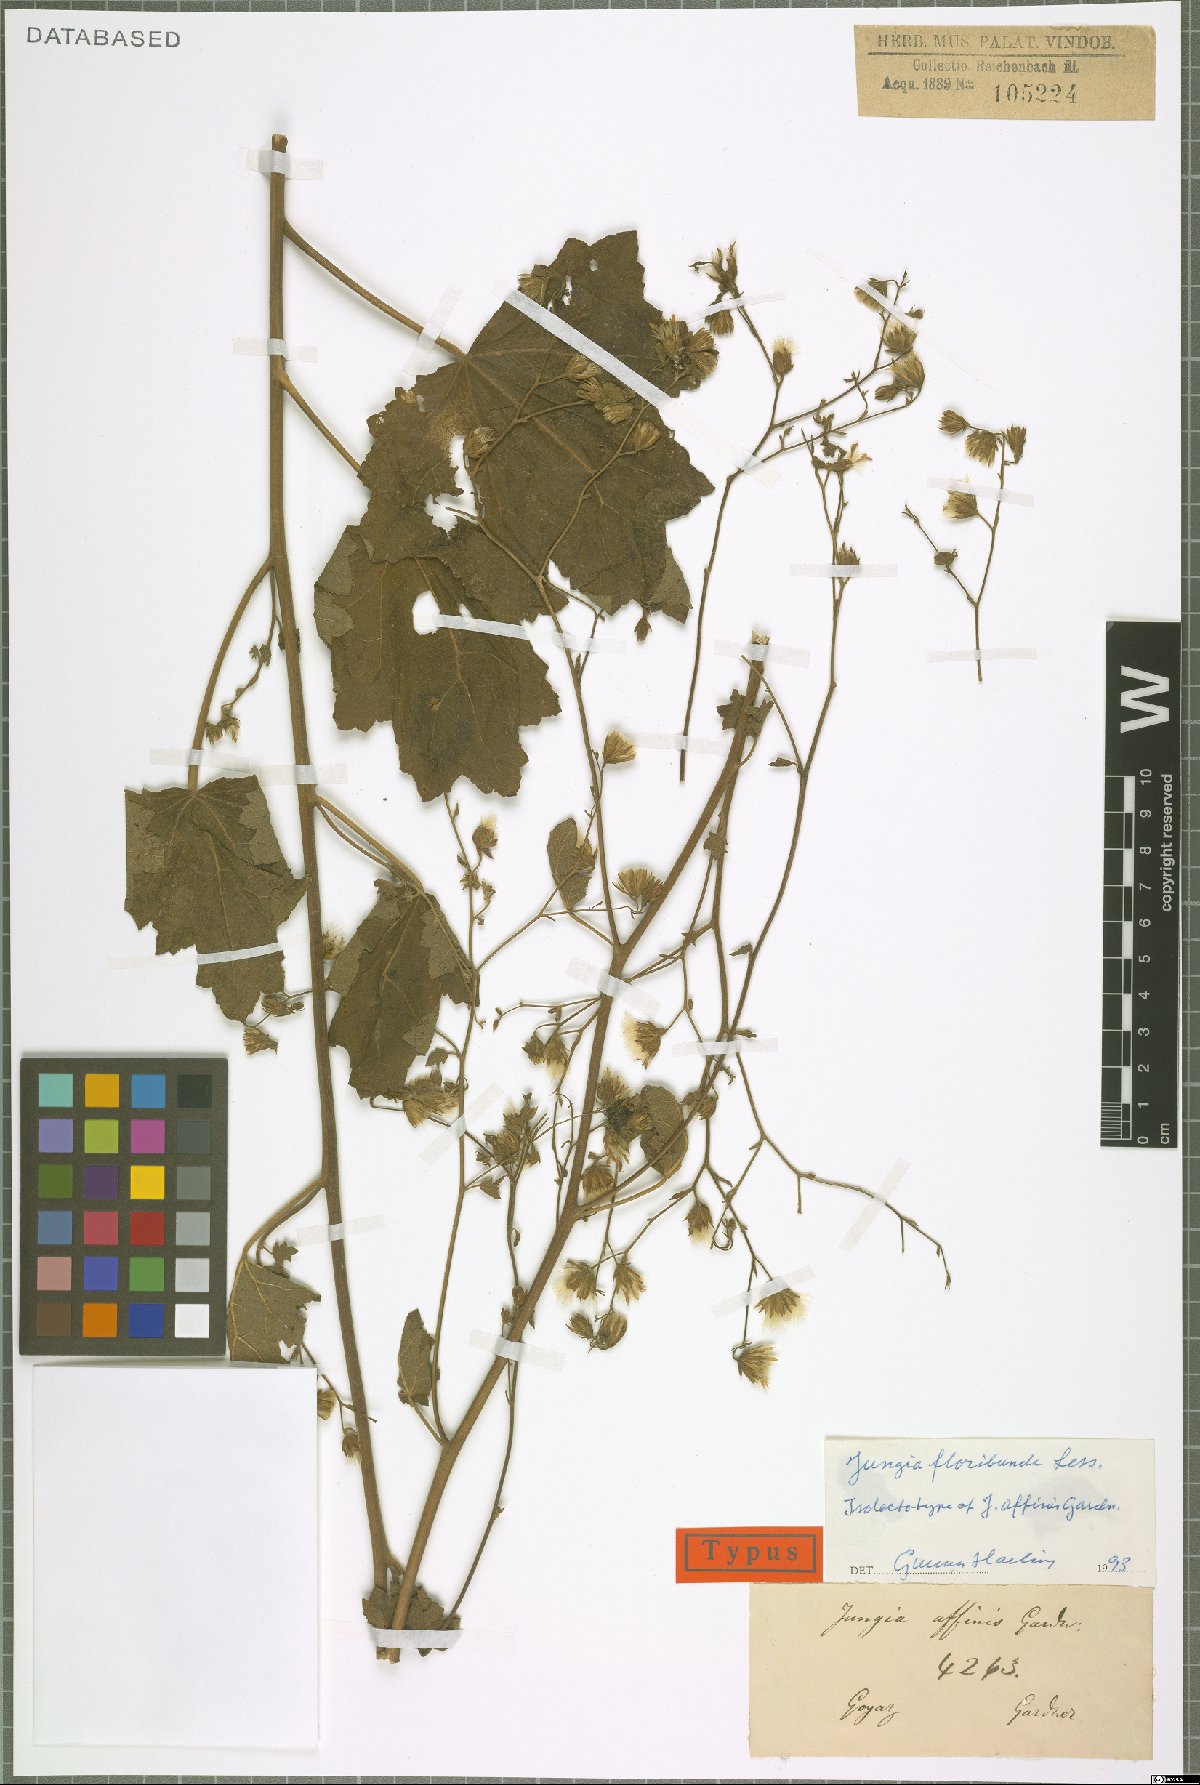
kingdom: Plantae
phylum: Tracheophyta
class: Magnoliopsida
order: Asterales
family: Asteraceae
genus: Jungia
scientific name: Jungia floribunda
